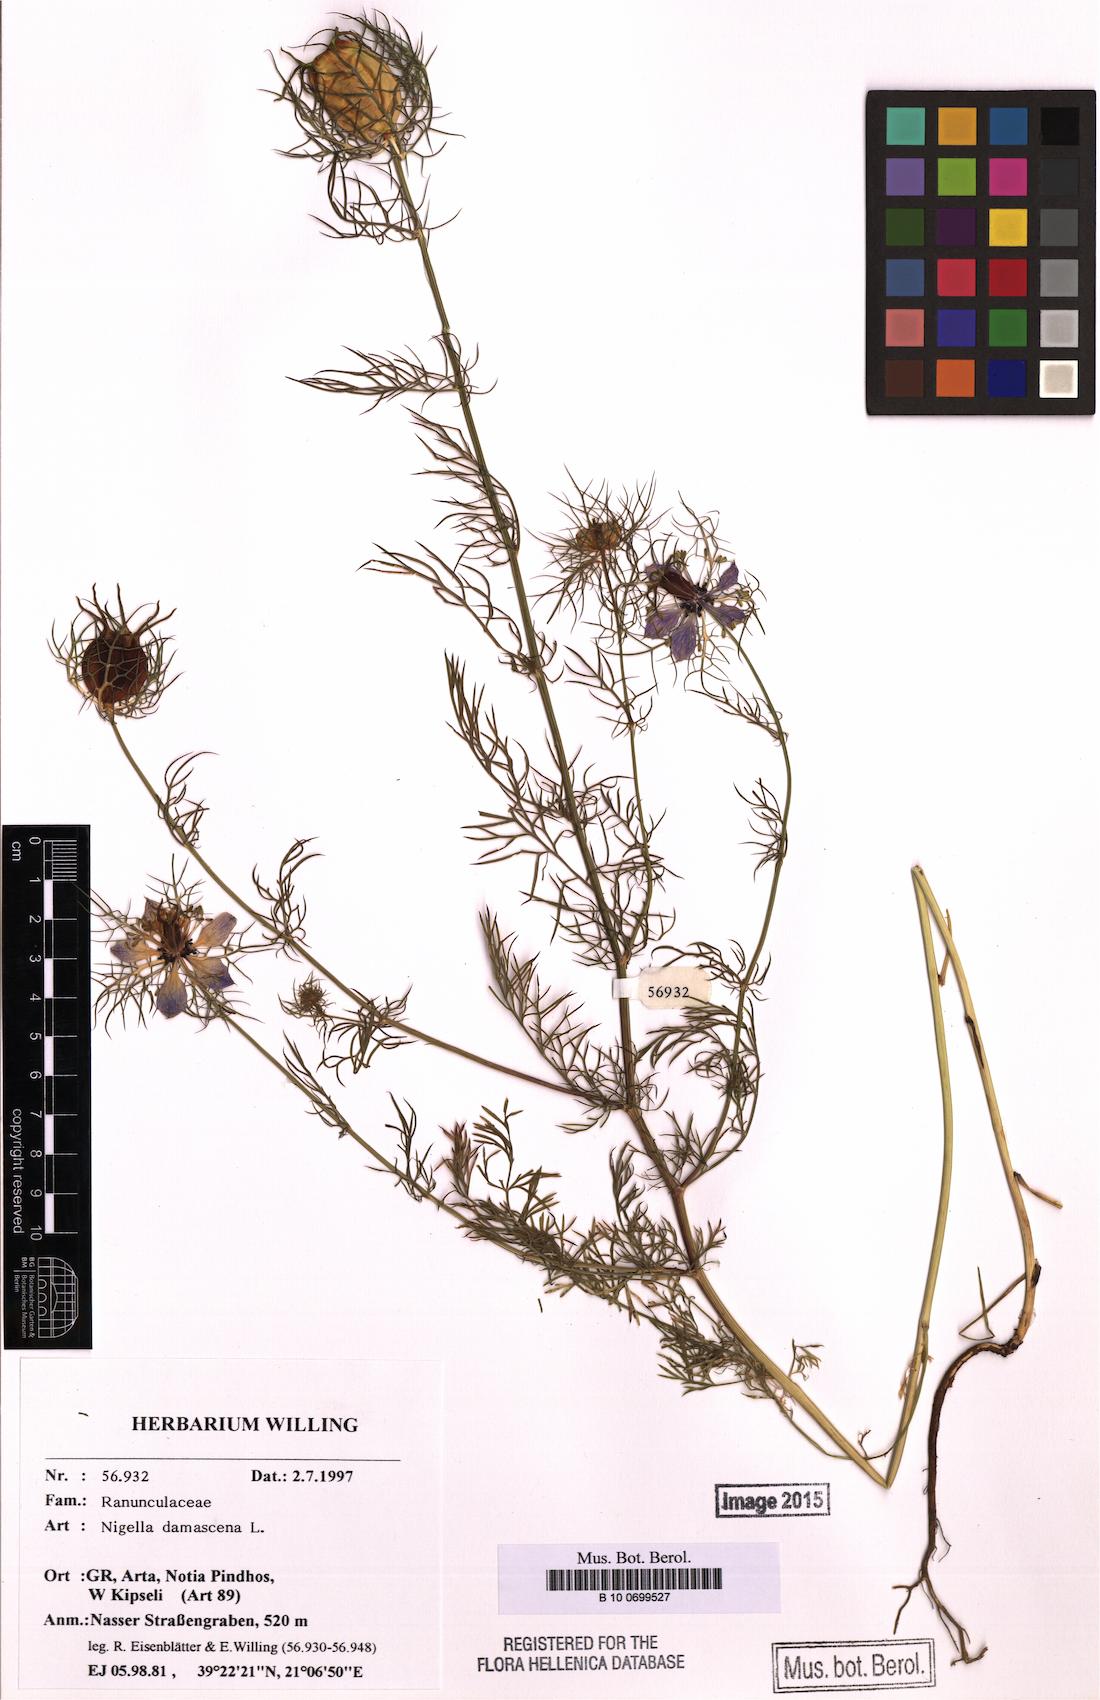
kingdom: Plantae
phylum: Tracheophyta
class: Magnoliopsida
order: Ranunculales
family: Ranunculaceae
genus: Nigella
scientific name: Nigella damascena
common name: Love-in-a-mist
